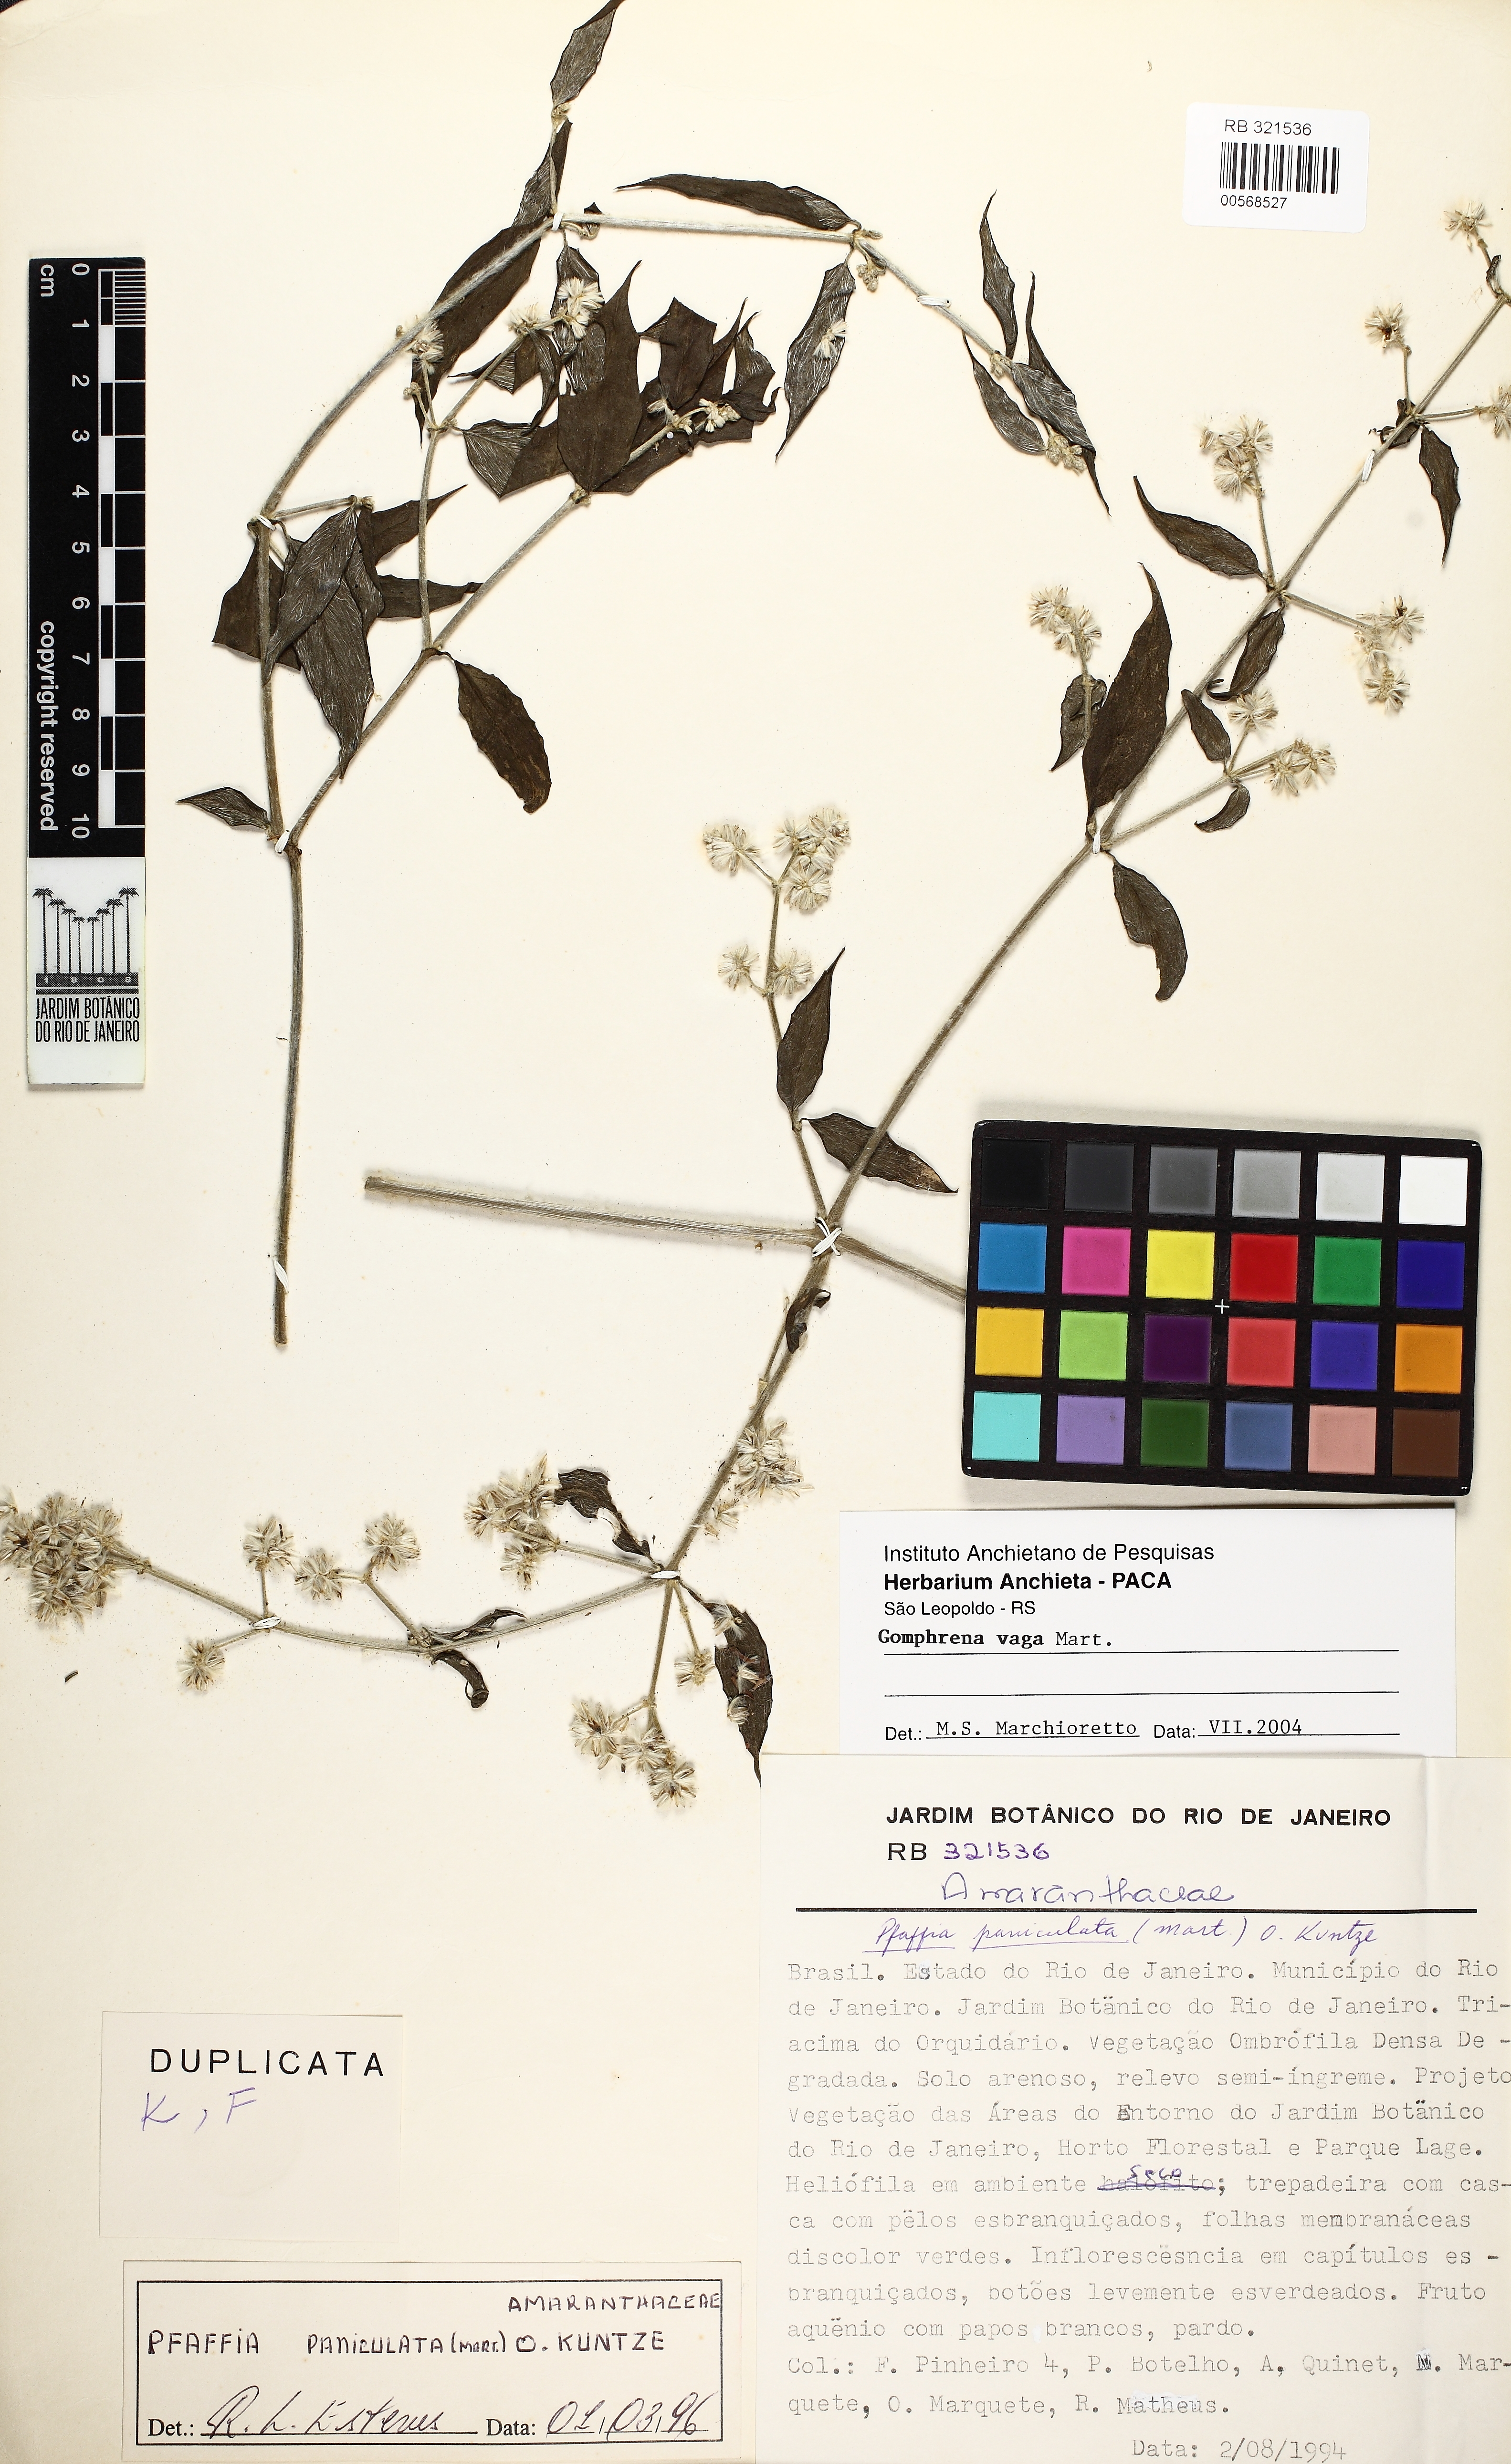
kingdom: Plantae
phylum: Tracheophyta
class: Magnoliopsida
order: Caryophyllales
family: Amaranthaceae
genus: Gomphrena
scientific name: Gomphrena vaga
